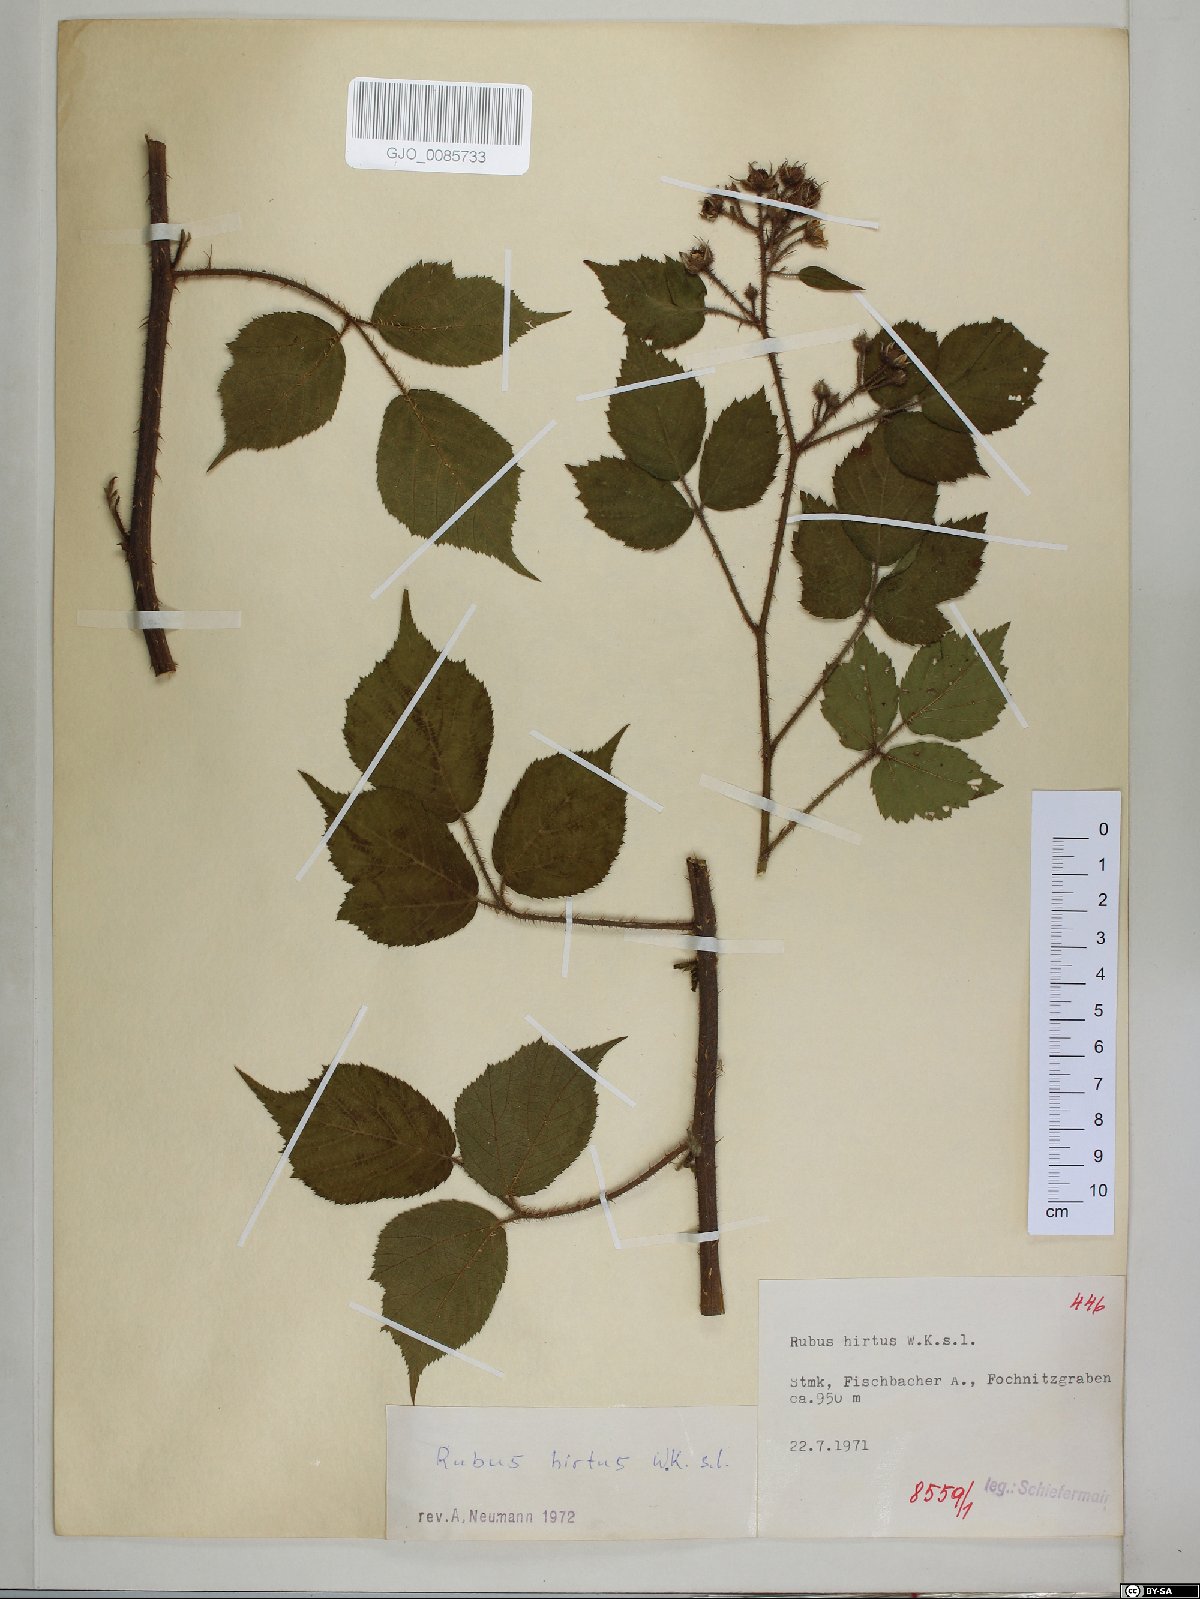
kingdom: Plantae
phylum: Tracheophyta
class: Magnoliopsida
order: Rosales
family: Rosaceae
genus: Rubus
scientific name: Rubus hirtus
